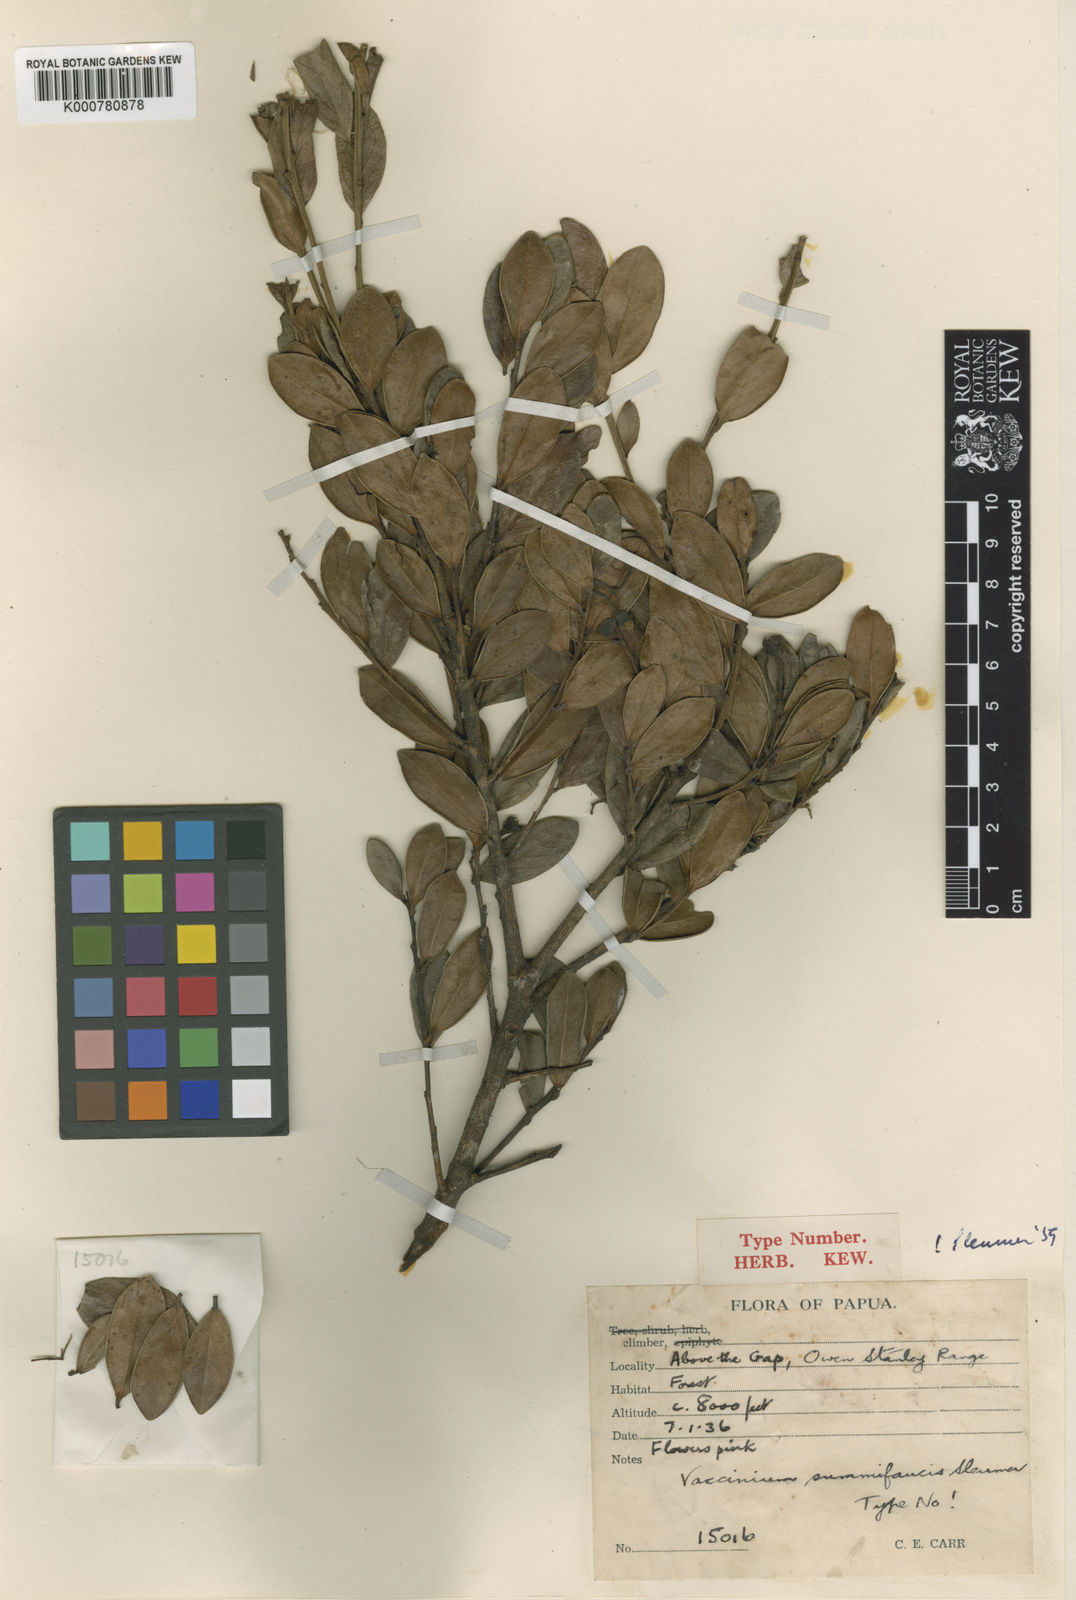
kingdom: Plantae
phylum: Tracheophyta
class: Magnoliopsida
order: Ericales
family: Ericaceae
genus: Vaccinium
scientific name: Vaccinium summifaucis
